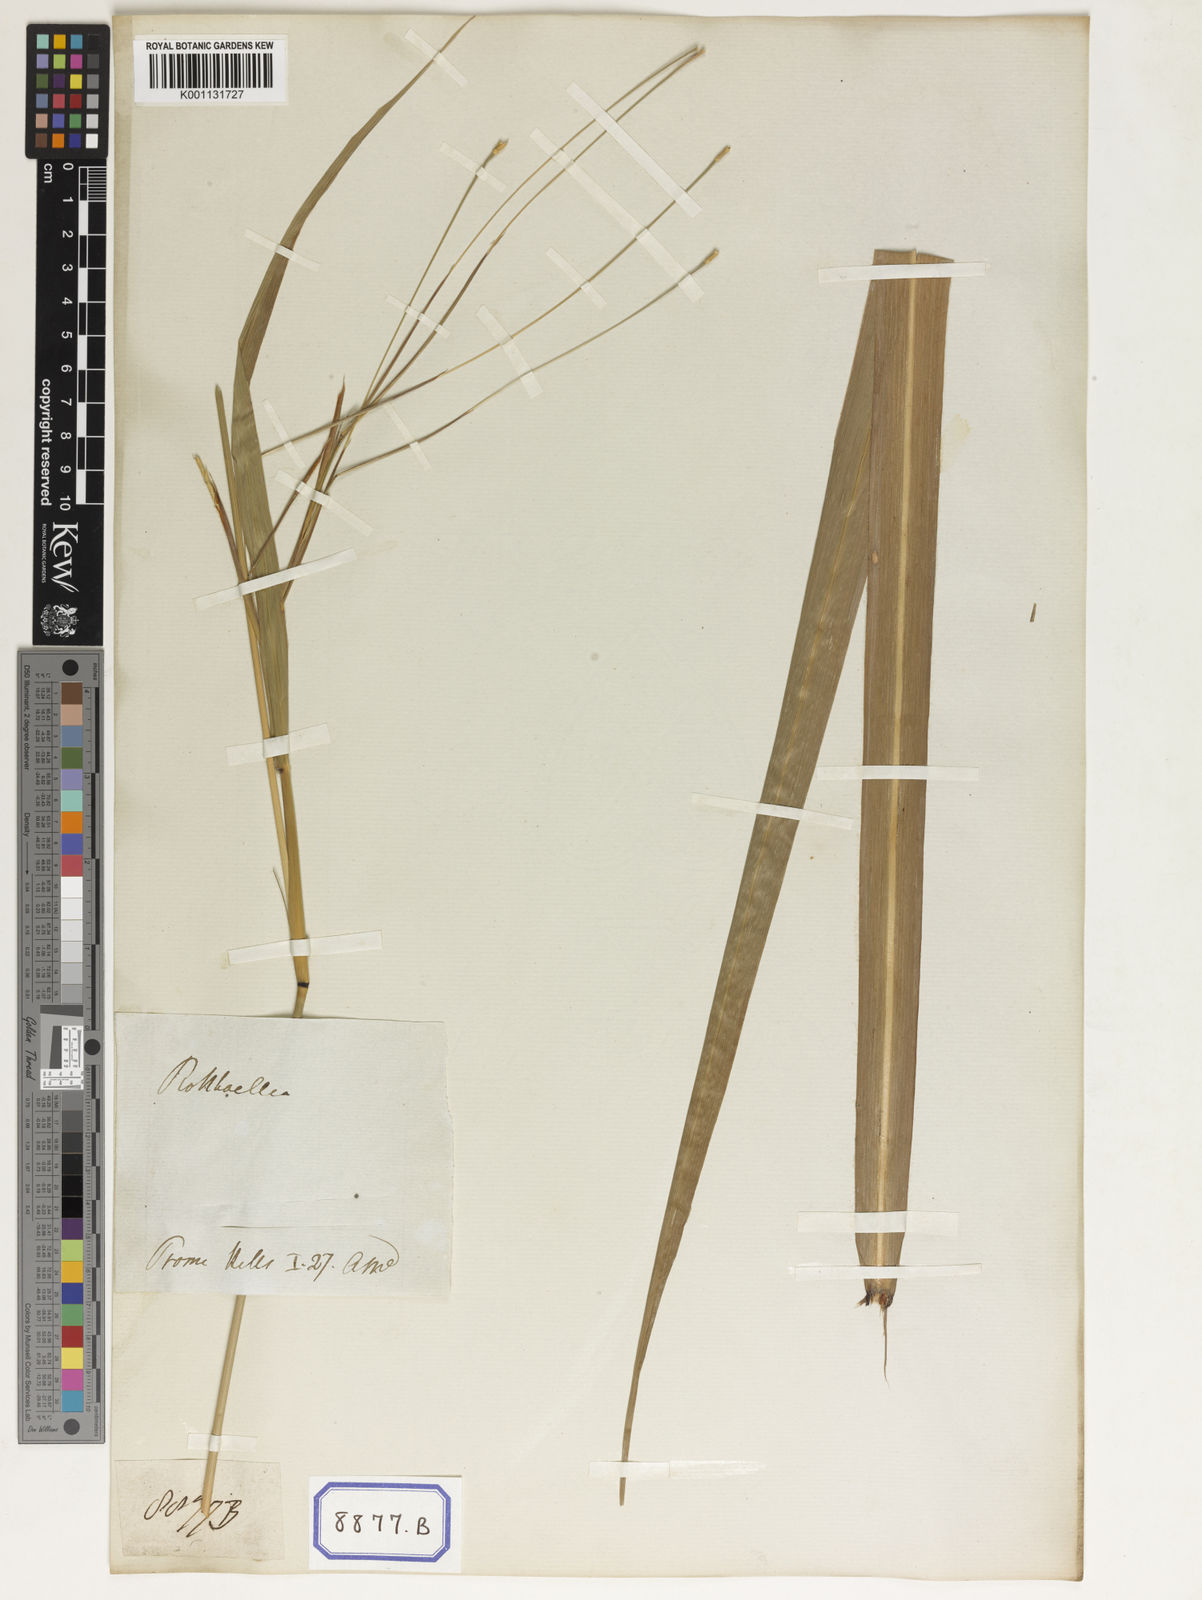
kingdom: Plantae
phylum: Tracheophyta
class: Liliopsida
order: Poales
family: Poaceae
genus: Rottboellia
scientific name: Rottboellia
